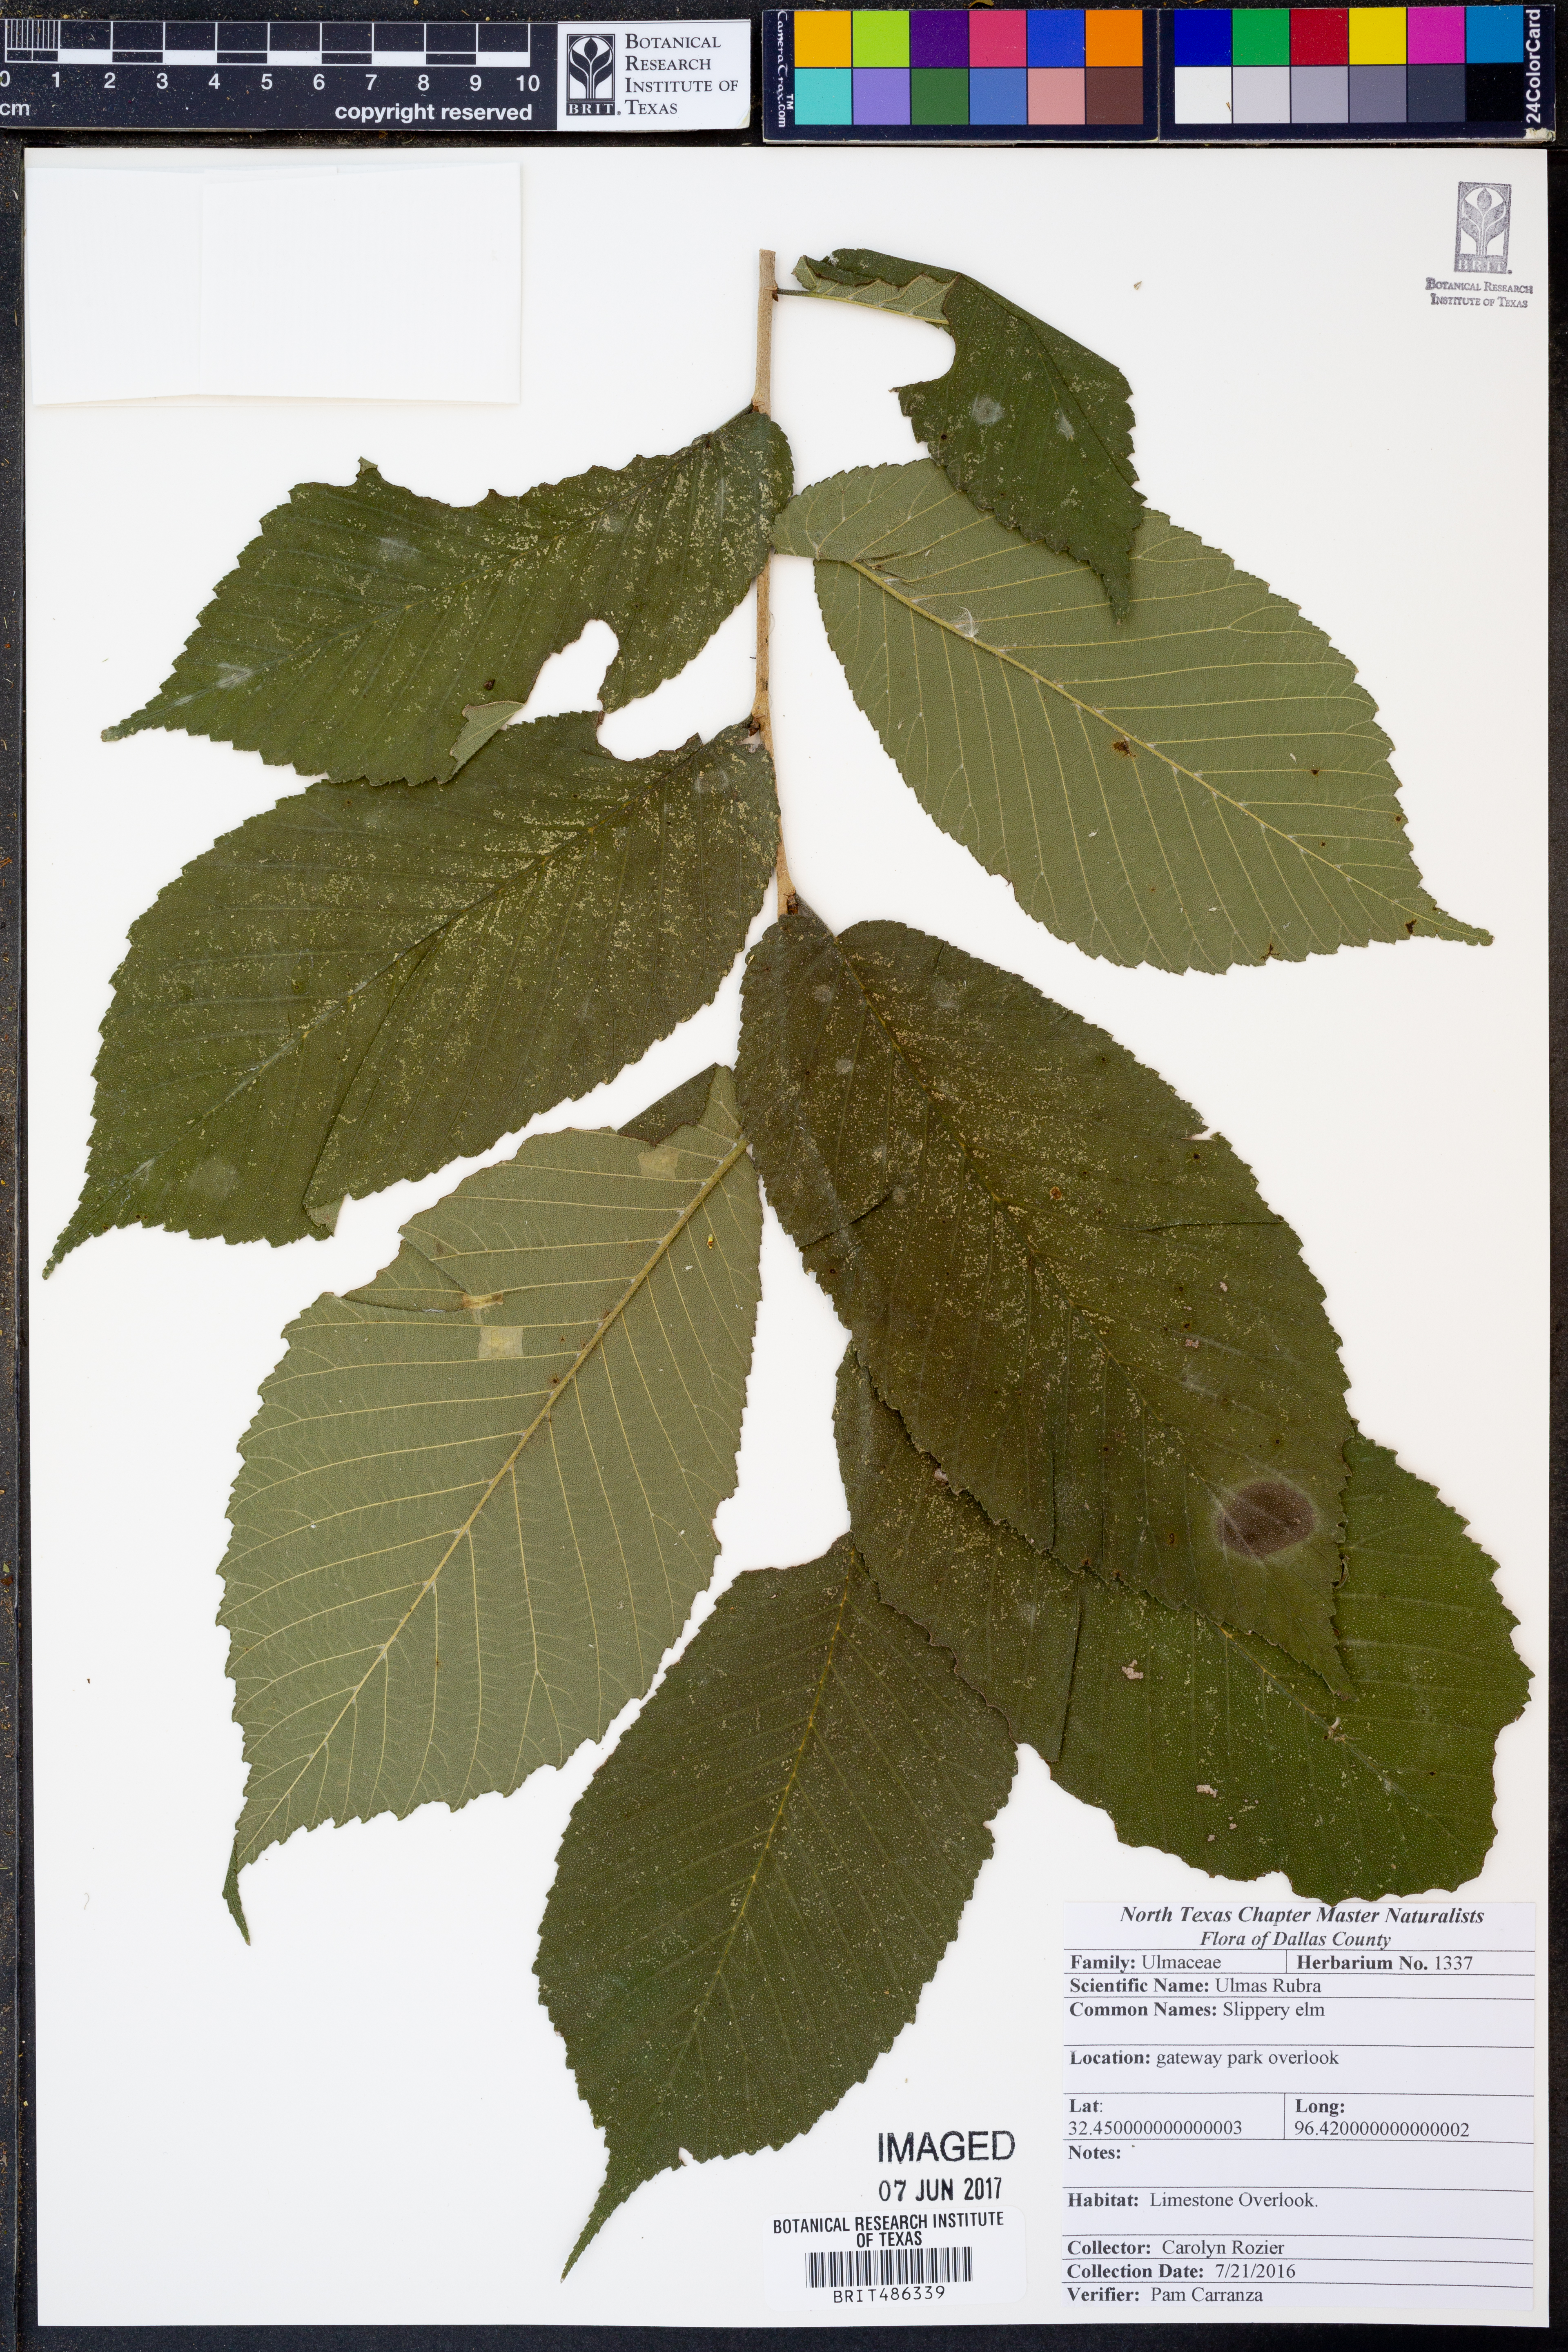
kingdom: Plantae
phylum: Tracheophyta
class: Magnoliopsida
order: Rosales
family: Ulmaceae
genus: Ulmus
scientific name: Ulmus rubra
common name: Slippery elm
